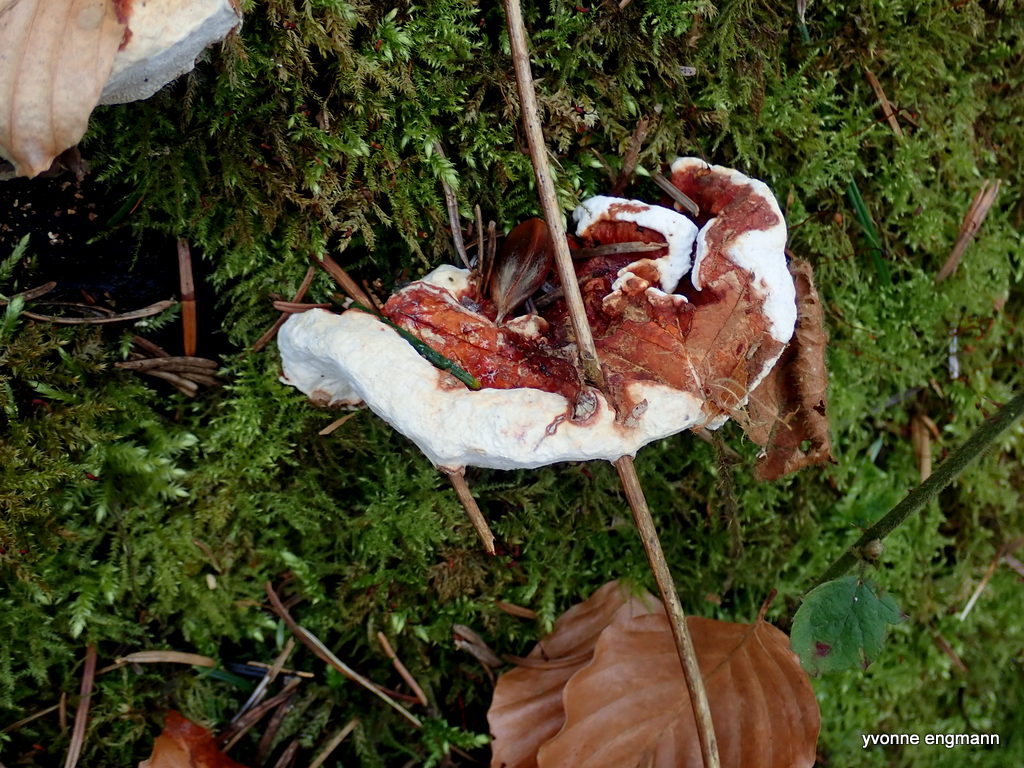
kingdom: Fungi
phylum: Basidiomycota
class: Agaricomycetes
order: Russulales
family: Bondarzewiaceae
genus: Heterobasidion
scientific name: Heterobasidion
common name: rodfordærver
